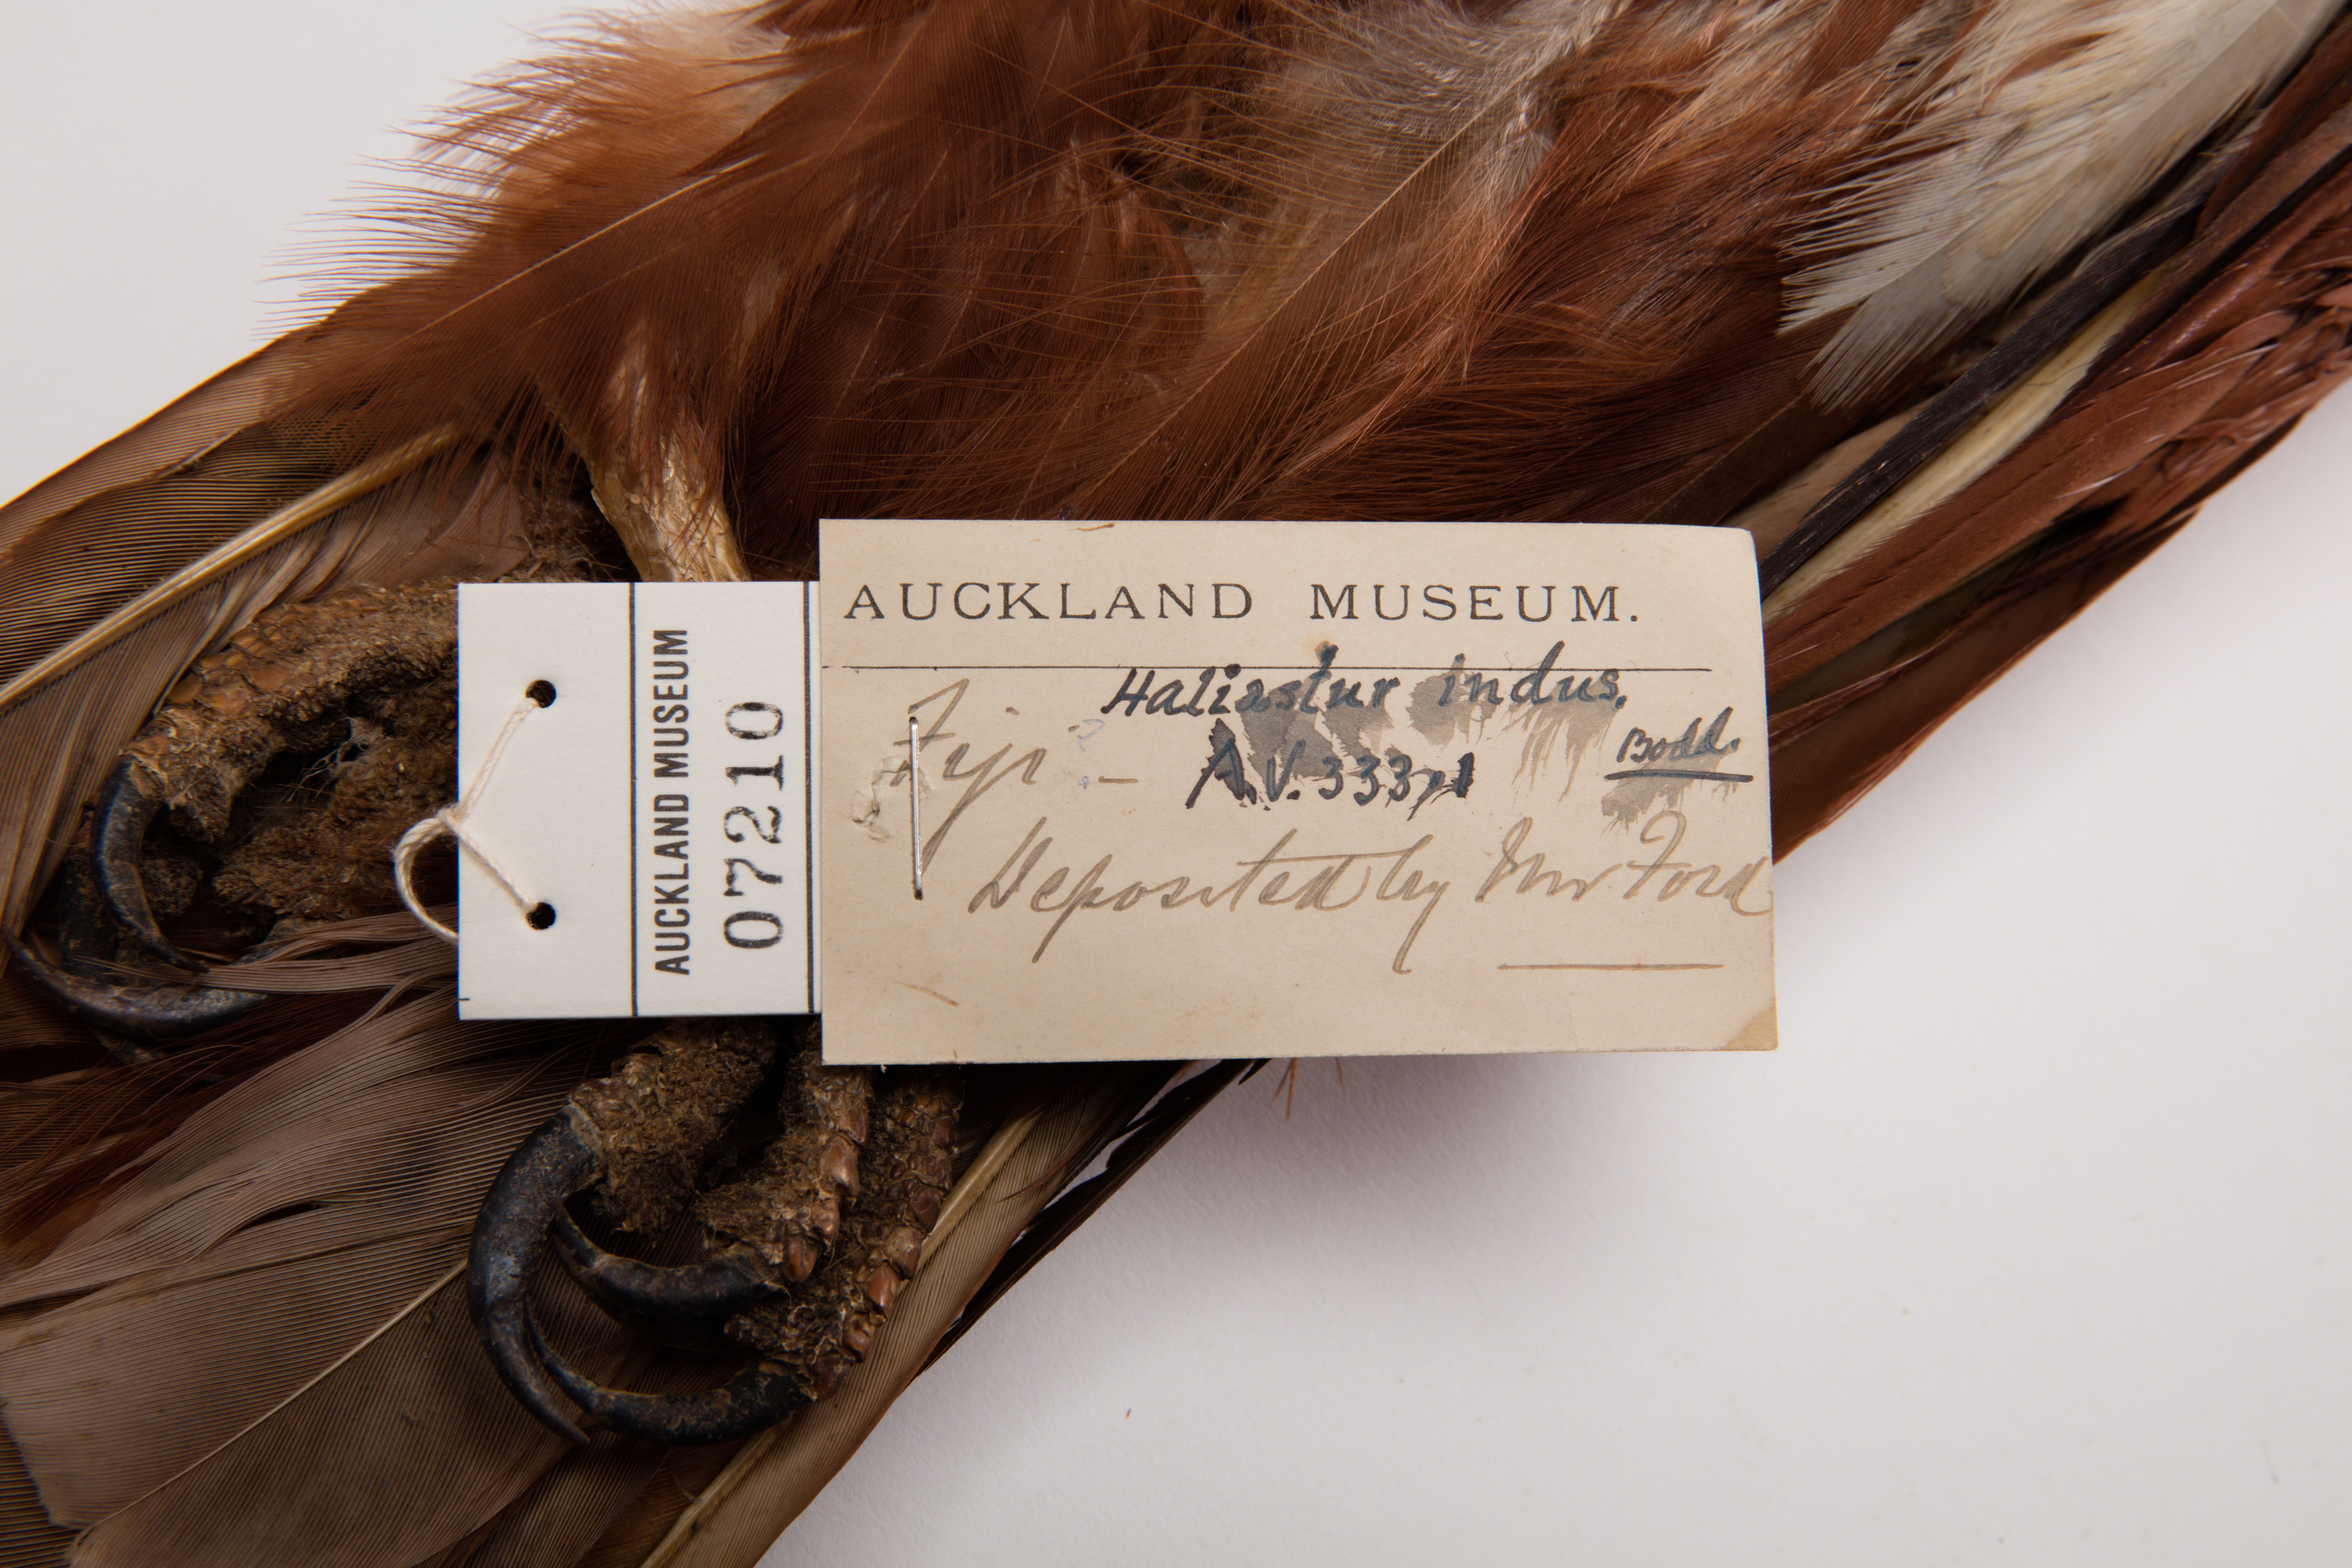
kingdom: Animalia
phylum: Chordata
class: Aves
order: Accipitriformes
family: Accipitridae
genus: Haliastur
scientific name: Haliastur indus
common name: Brahminy kite
